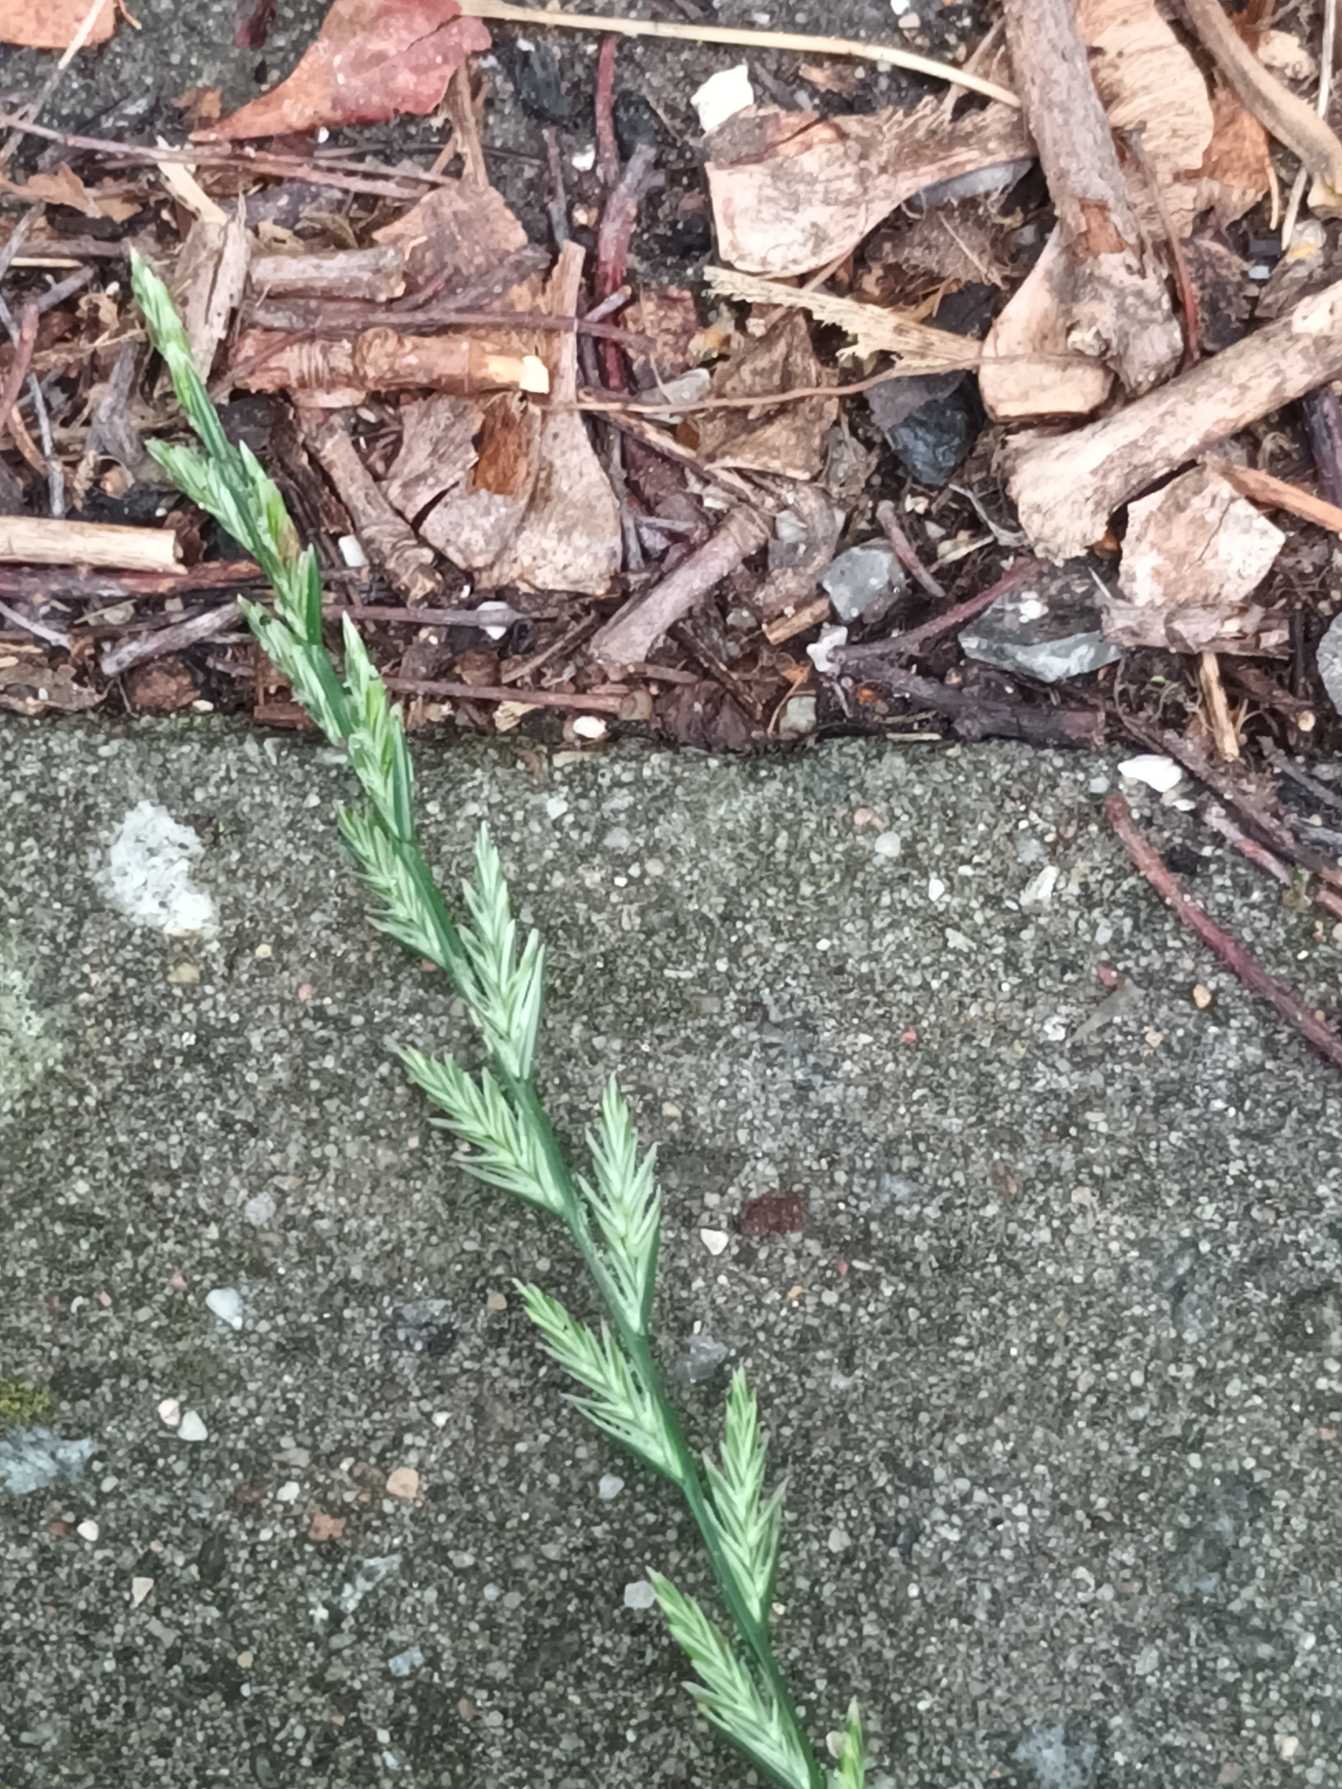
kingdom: Plantae
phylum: Tracheophyta
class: Liliopsida
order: Poales
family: Poaceae
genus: Lolium
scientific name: Lolium perenne
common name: Almindelig rajgræs
